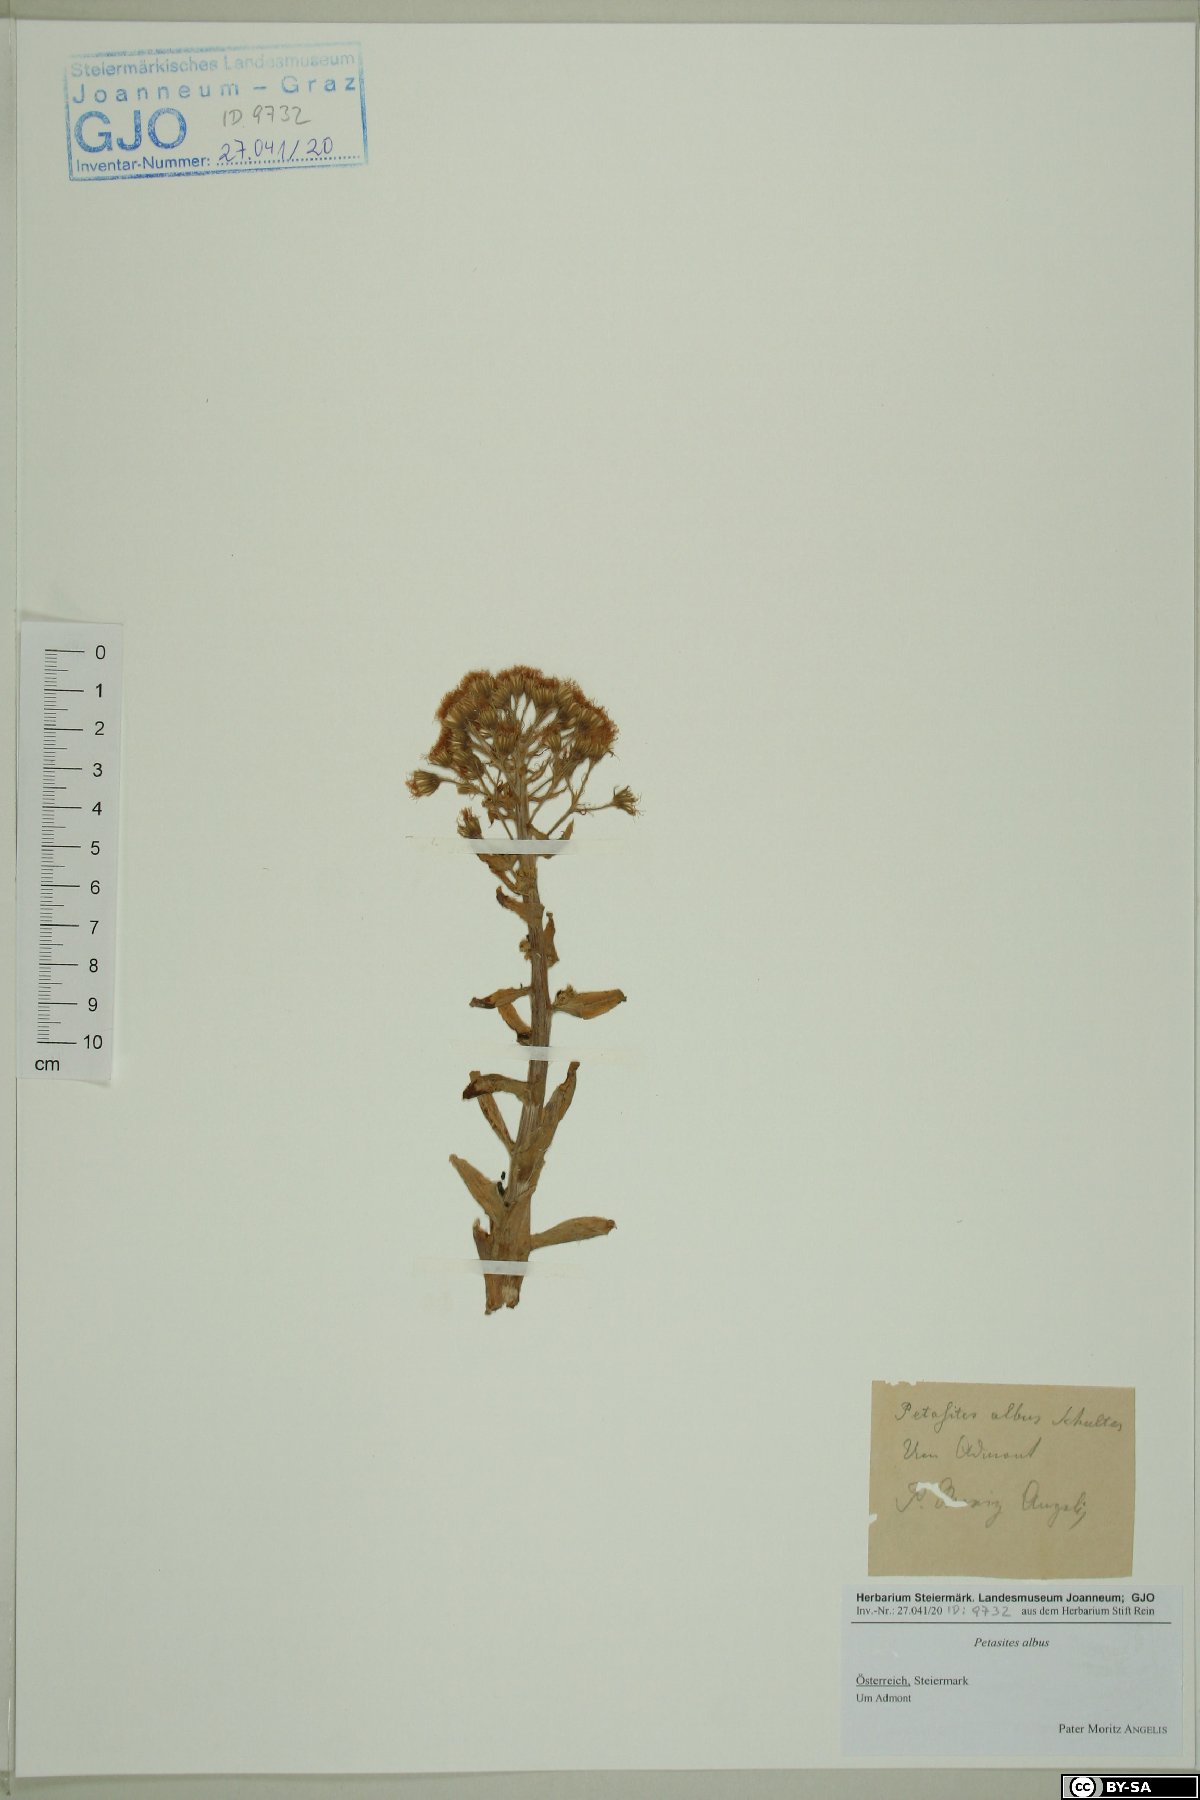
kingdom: Plantae
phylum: Tracheophyta
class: Magnoliopsida
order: Asterales
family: Asteraceae
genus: Petasites
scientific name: Petasites albus
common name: White butterbur
